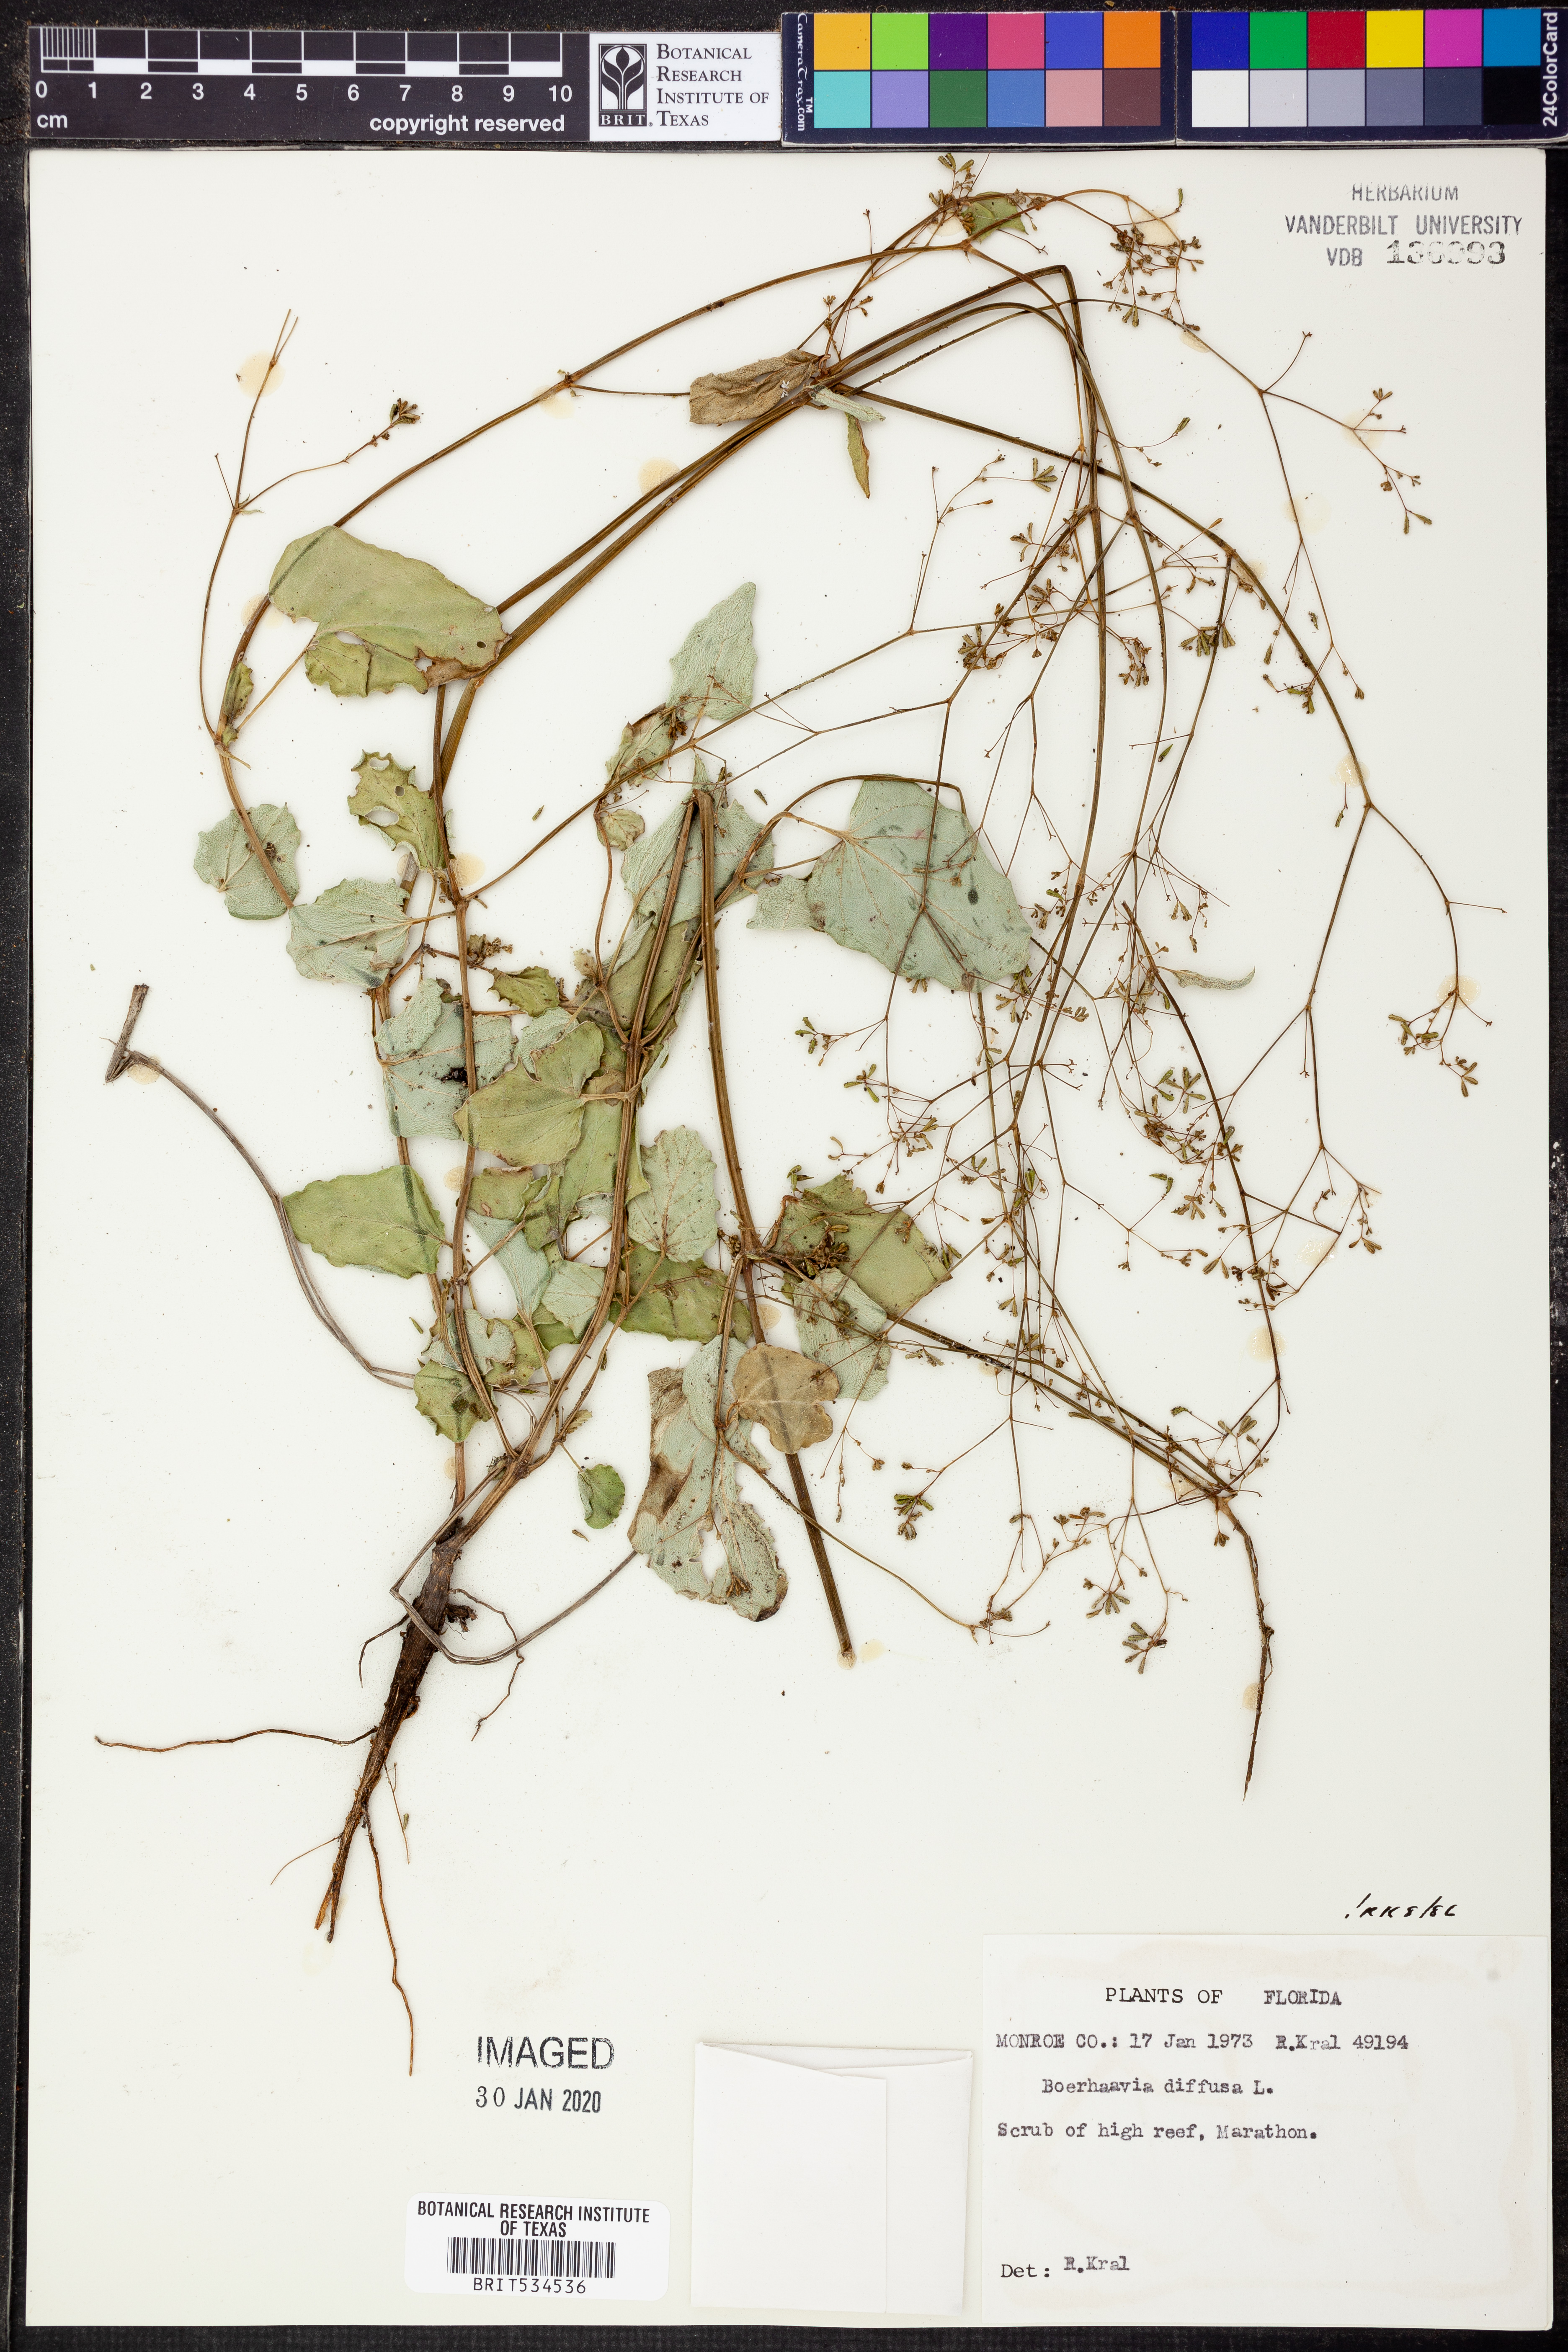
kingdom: Plantae
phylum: Tracheophyta
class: Magnoliopsida
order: Caryophyllales
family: Nyctaginaceae
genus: Boerhavia
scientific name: Boerhavia diffusa
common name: Red spiderling
